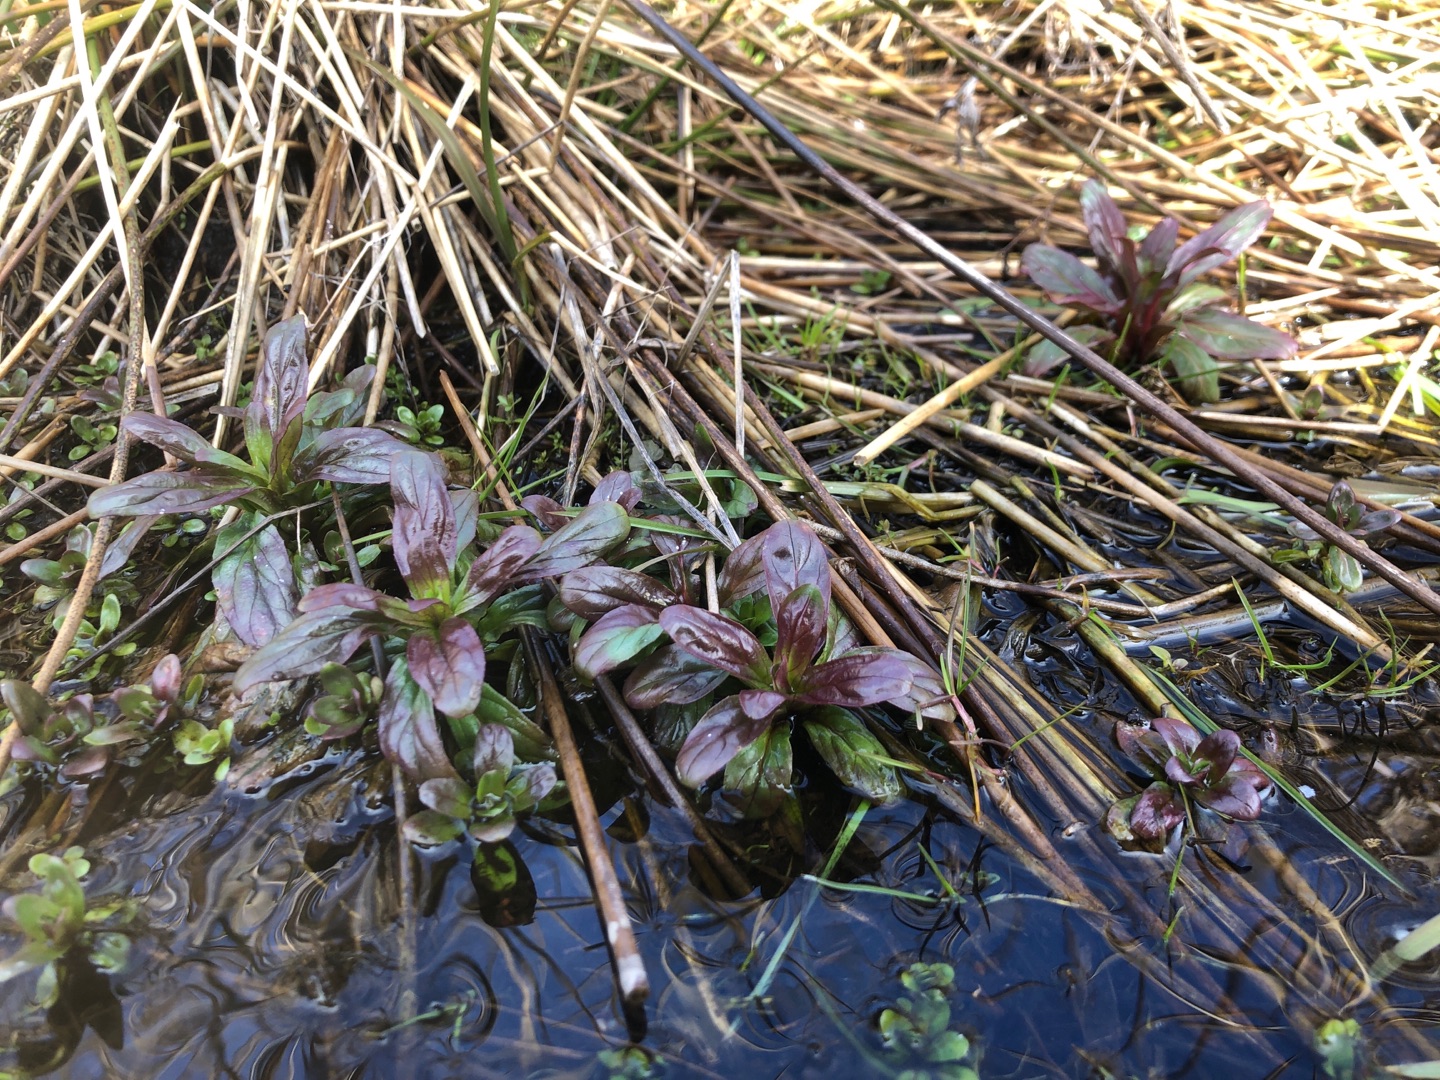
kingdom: Plantae
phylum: Tracheophyta
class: Magnoliopsida
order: Myrtales
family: Onagraceae
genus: Epilobium
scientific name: Epilobium
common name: Dueurtslægten
